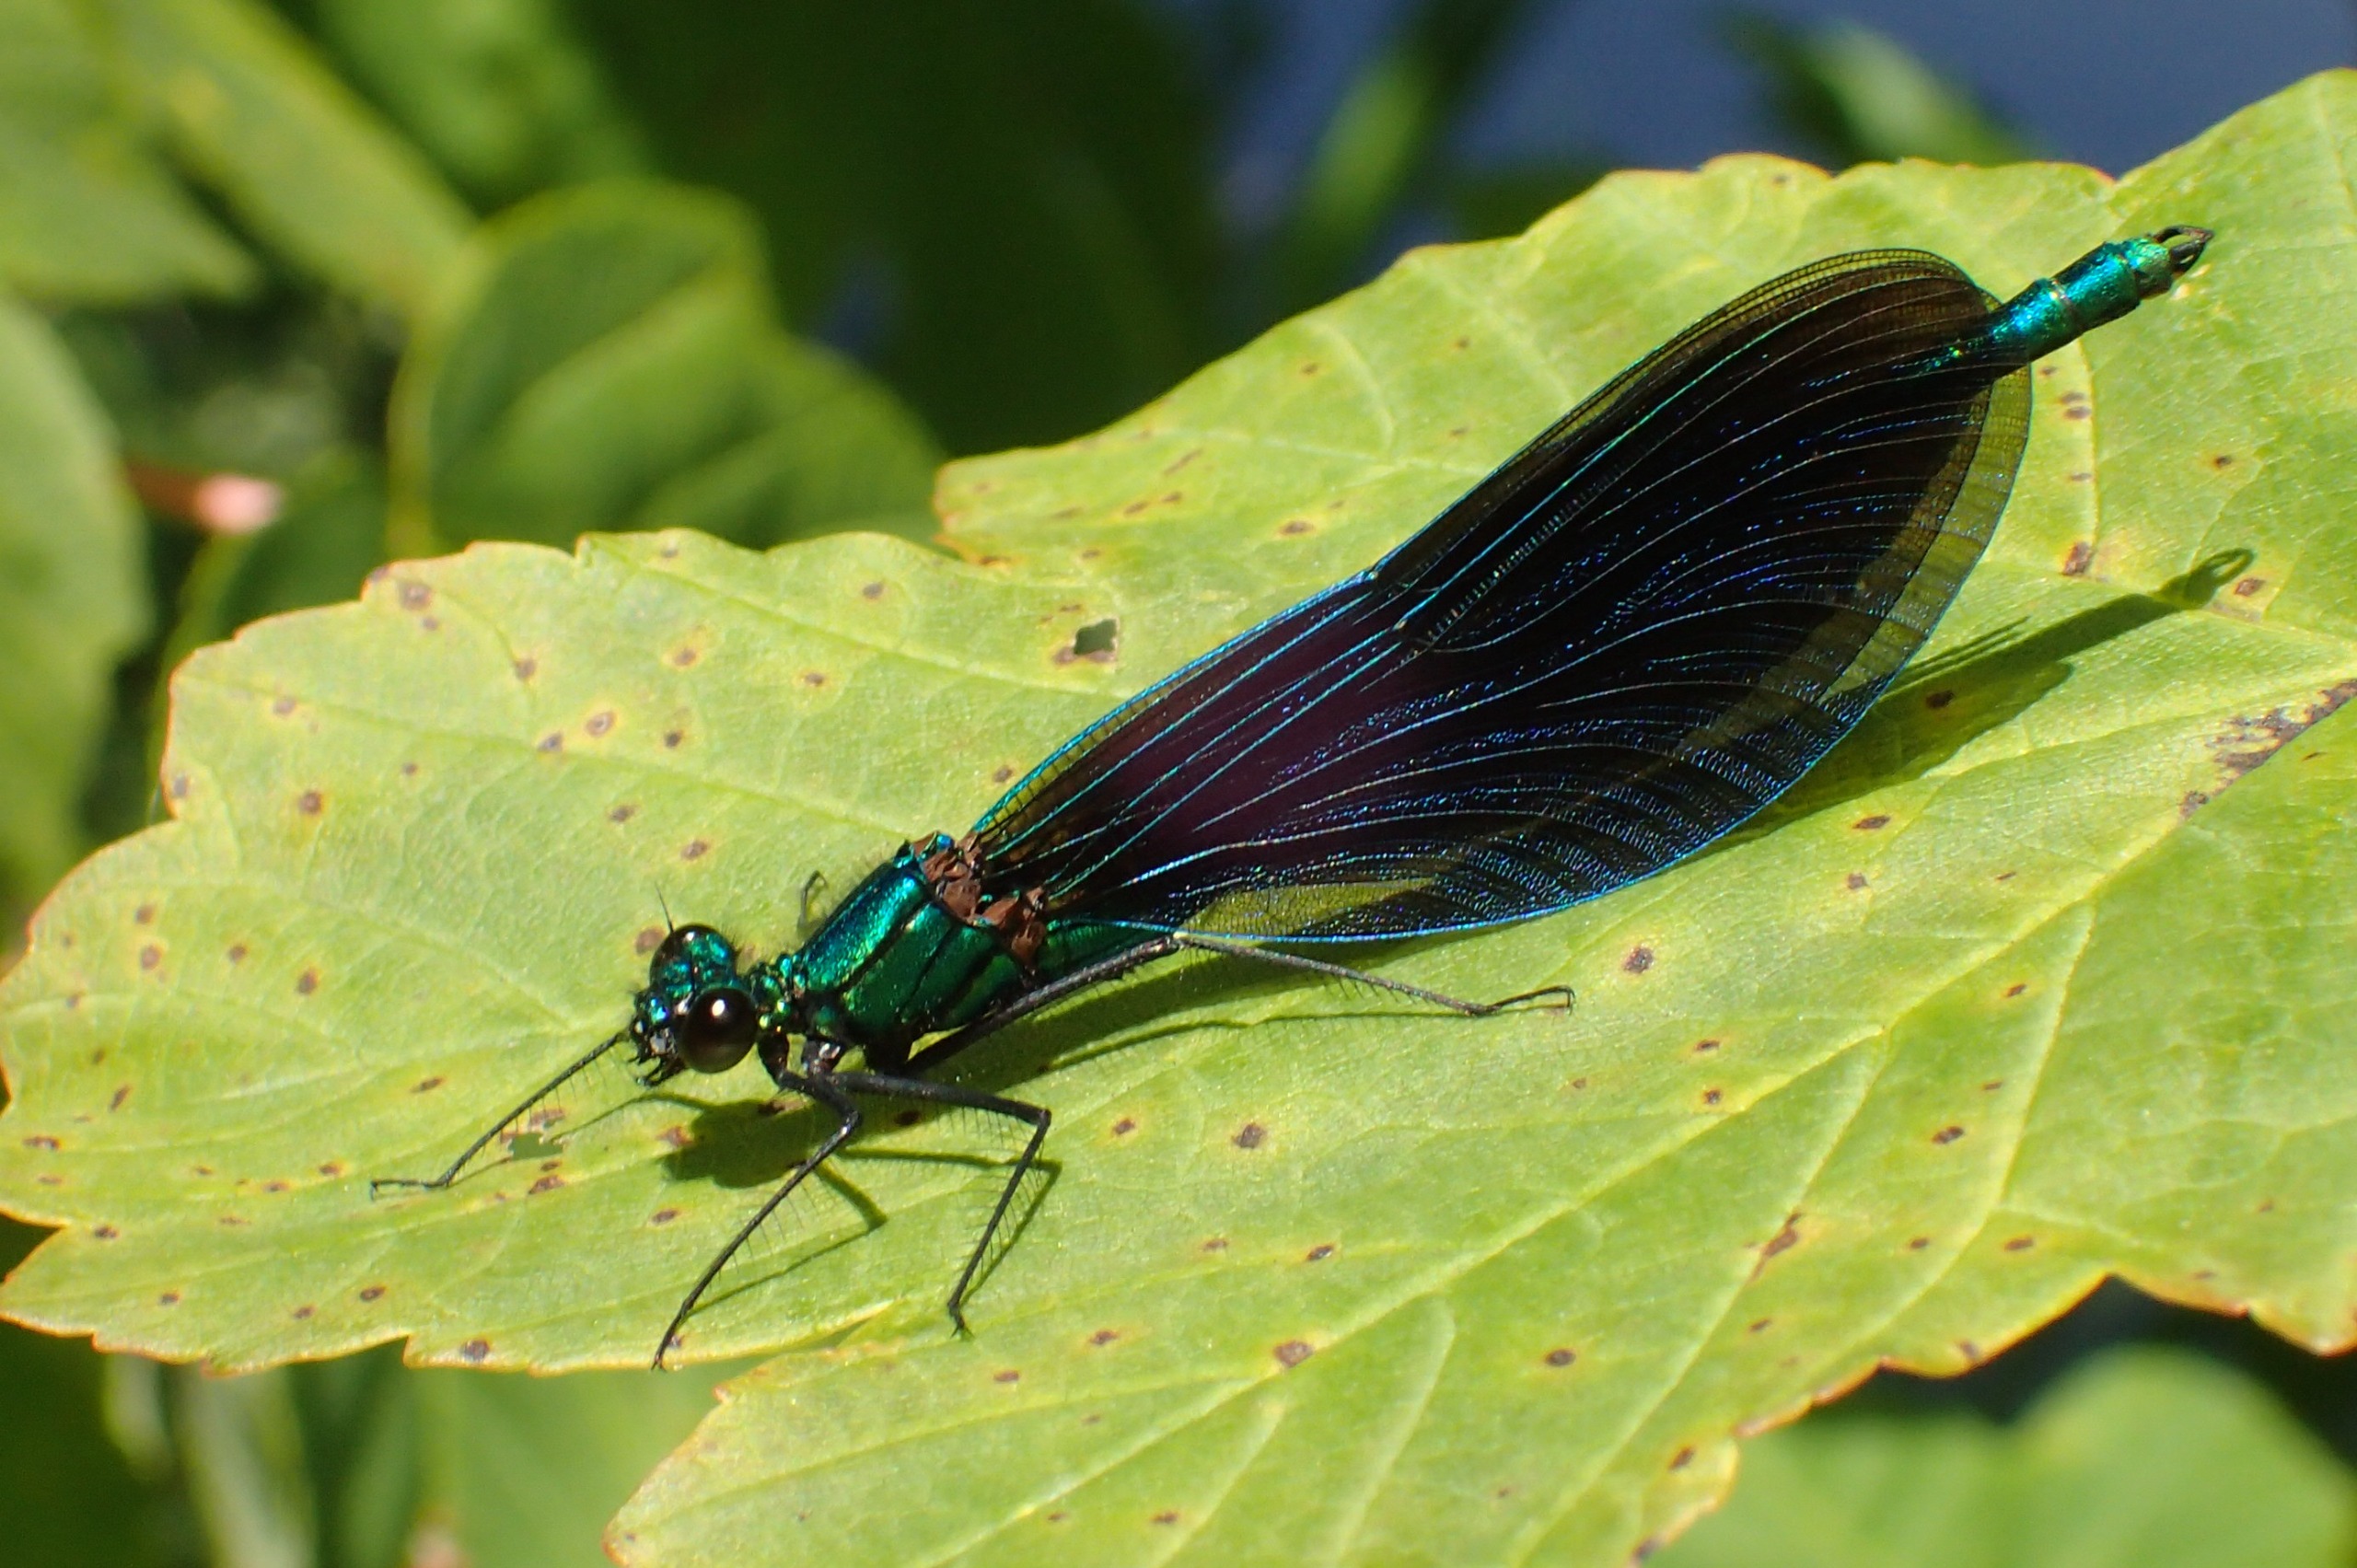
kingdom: Animalia
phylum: Arthropoda
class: Insecta
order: Odonata
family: Calopterygidae
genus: Calopteryx
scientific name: Calopteryx virgo
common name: Blåvinget pragtvandnymfe
